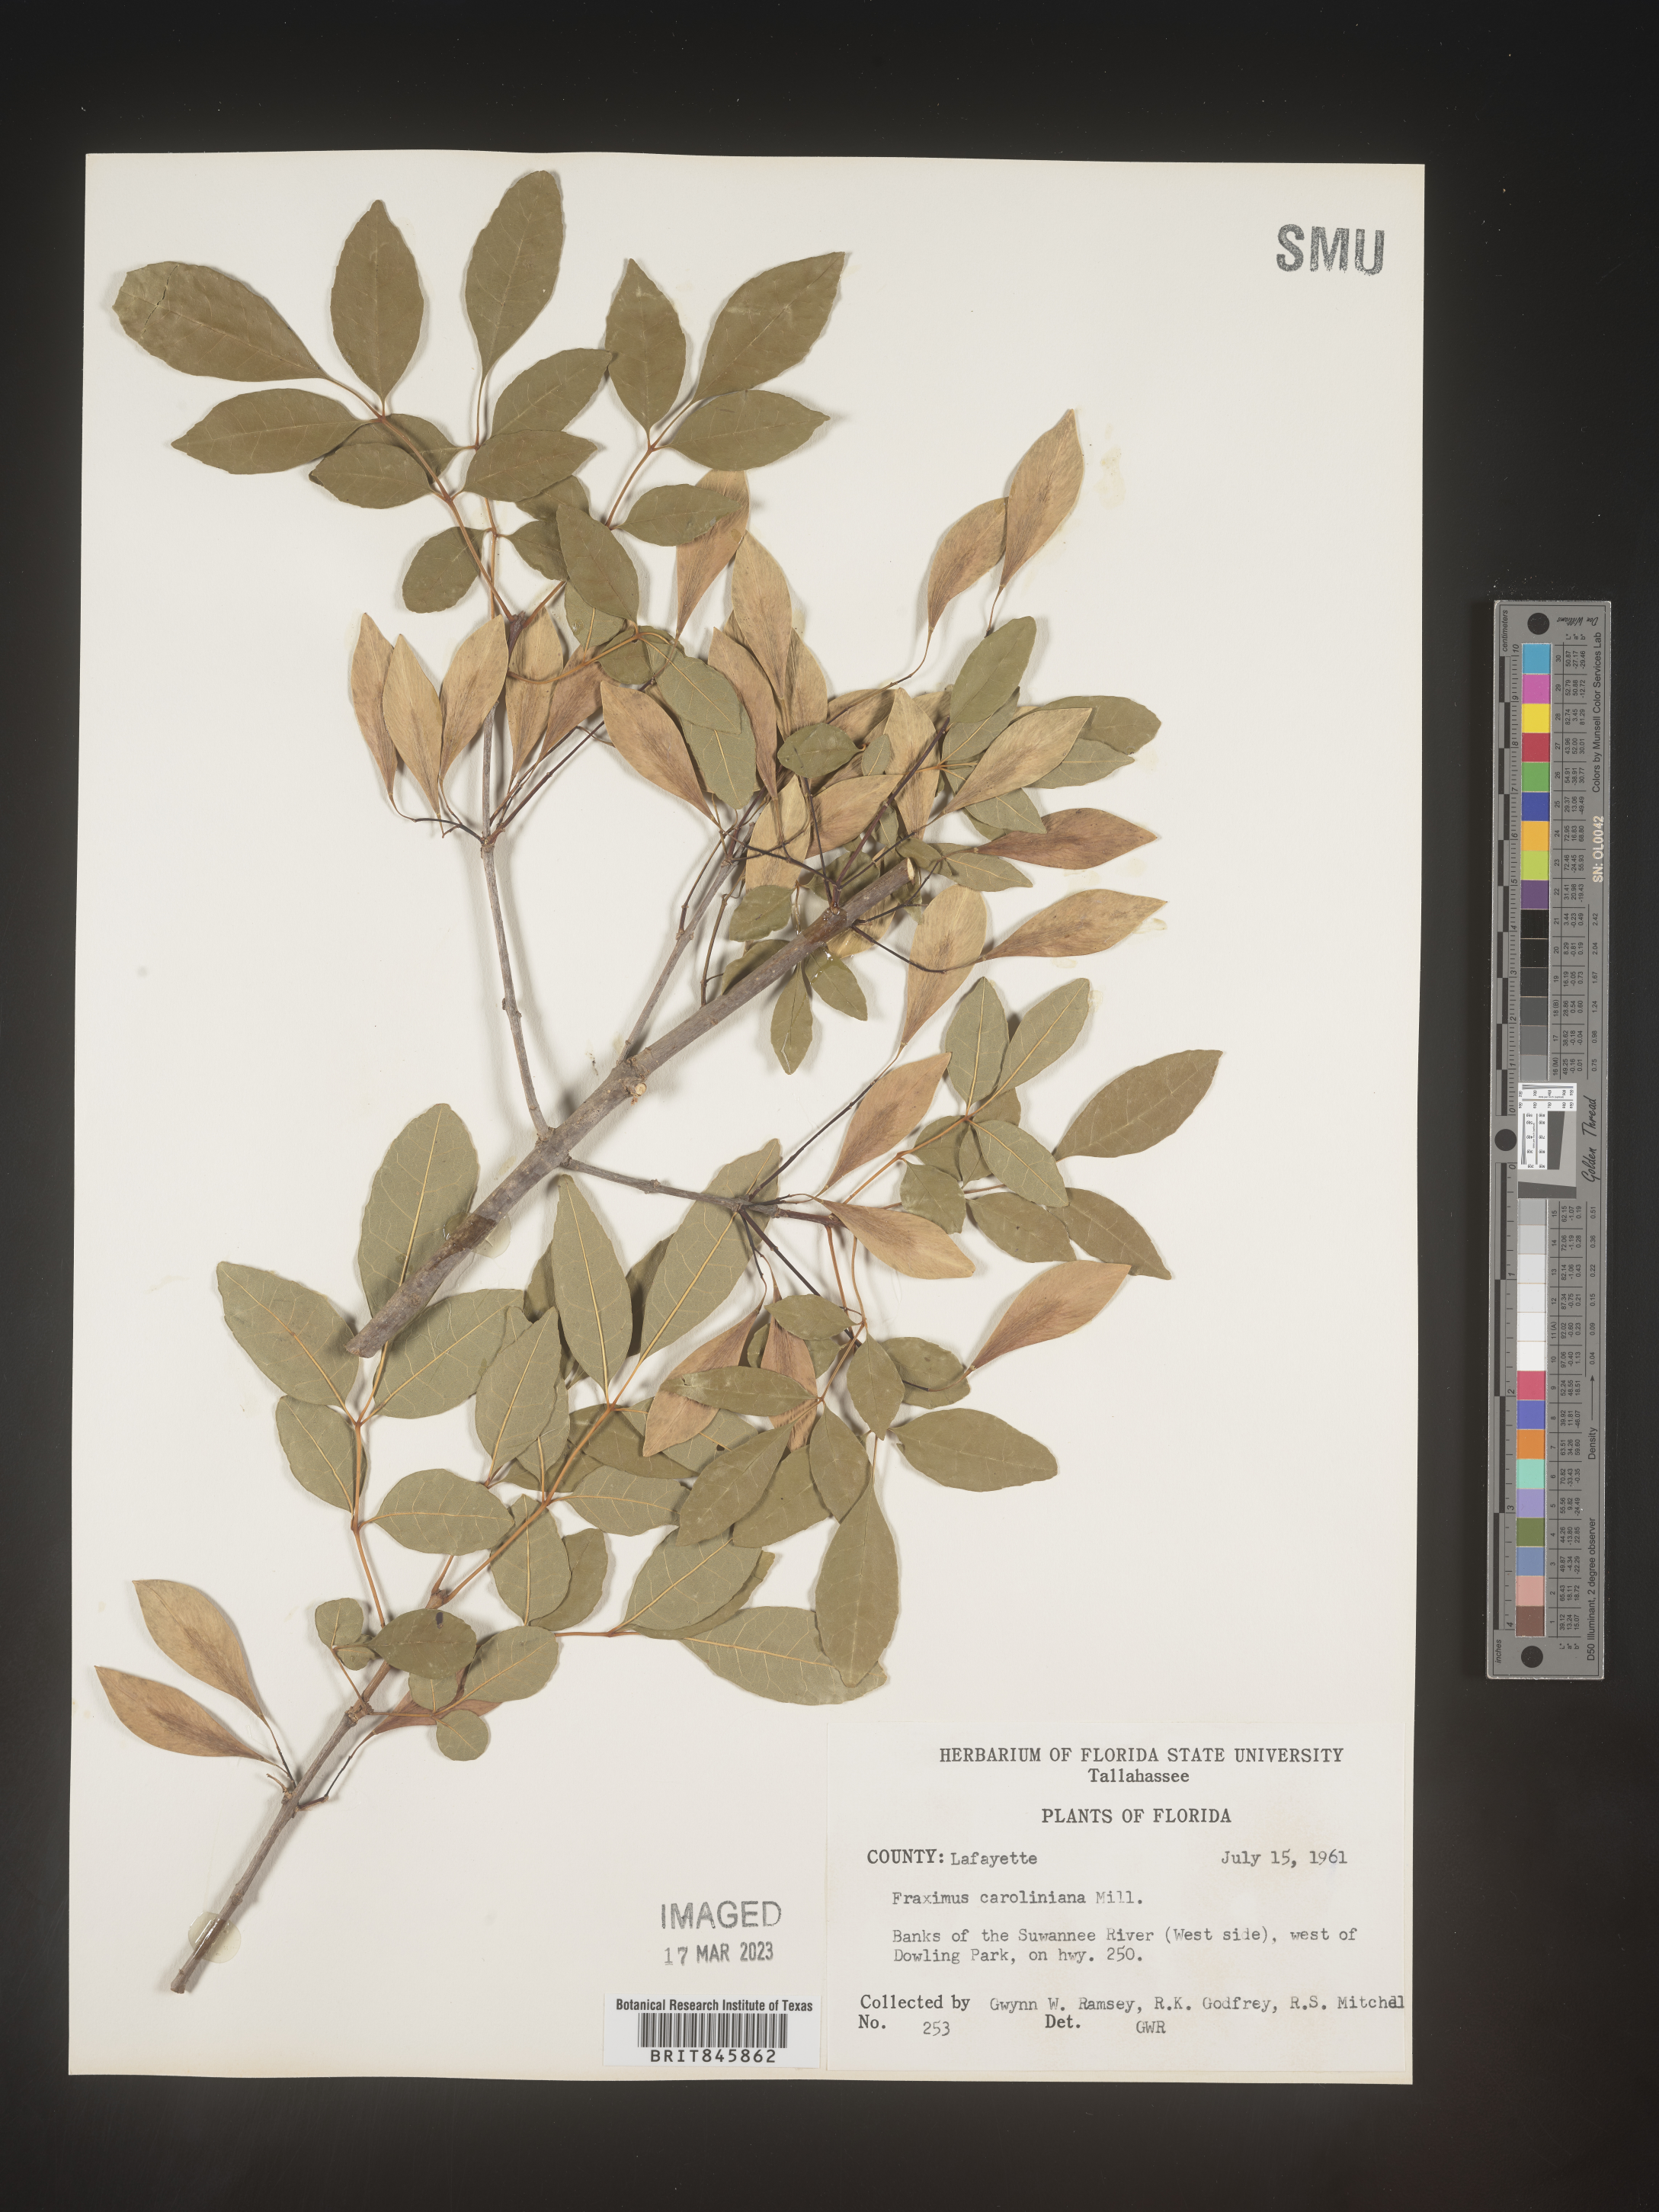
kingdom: Plantae
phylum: Tracheophyta
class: Magnoliopsida
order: Lamiales
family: Oleaceae
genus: Fraxinus
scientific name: Fraxinus caroliniana
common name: Carolina ash
